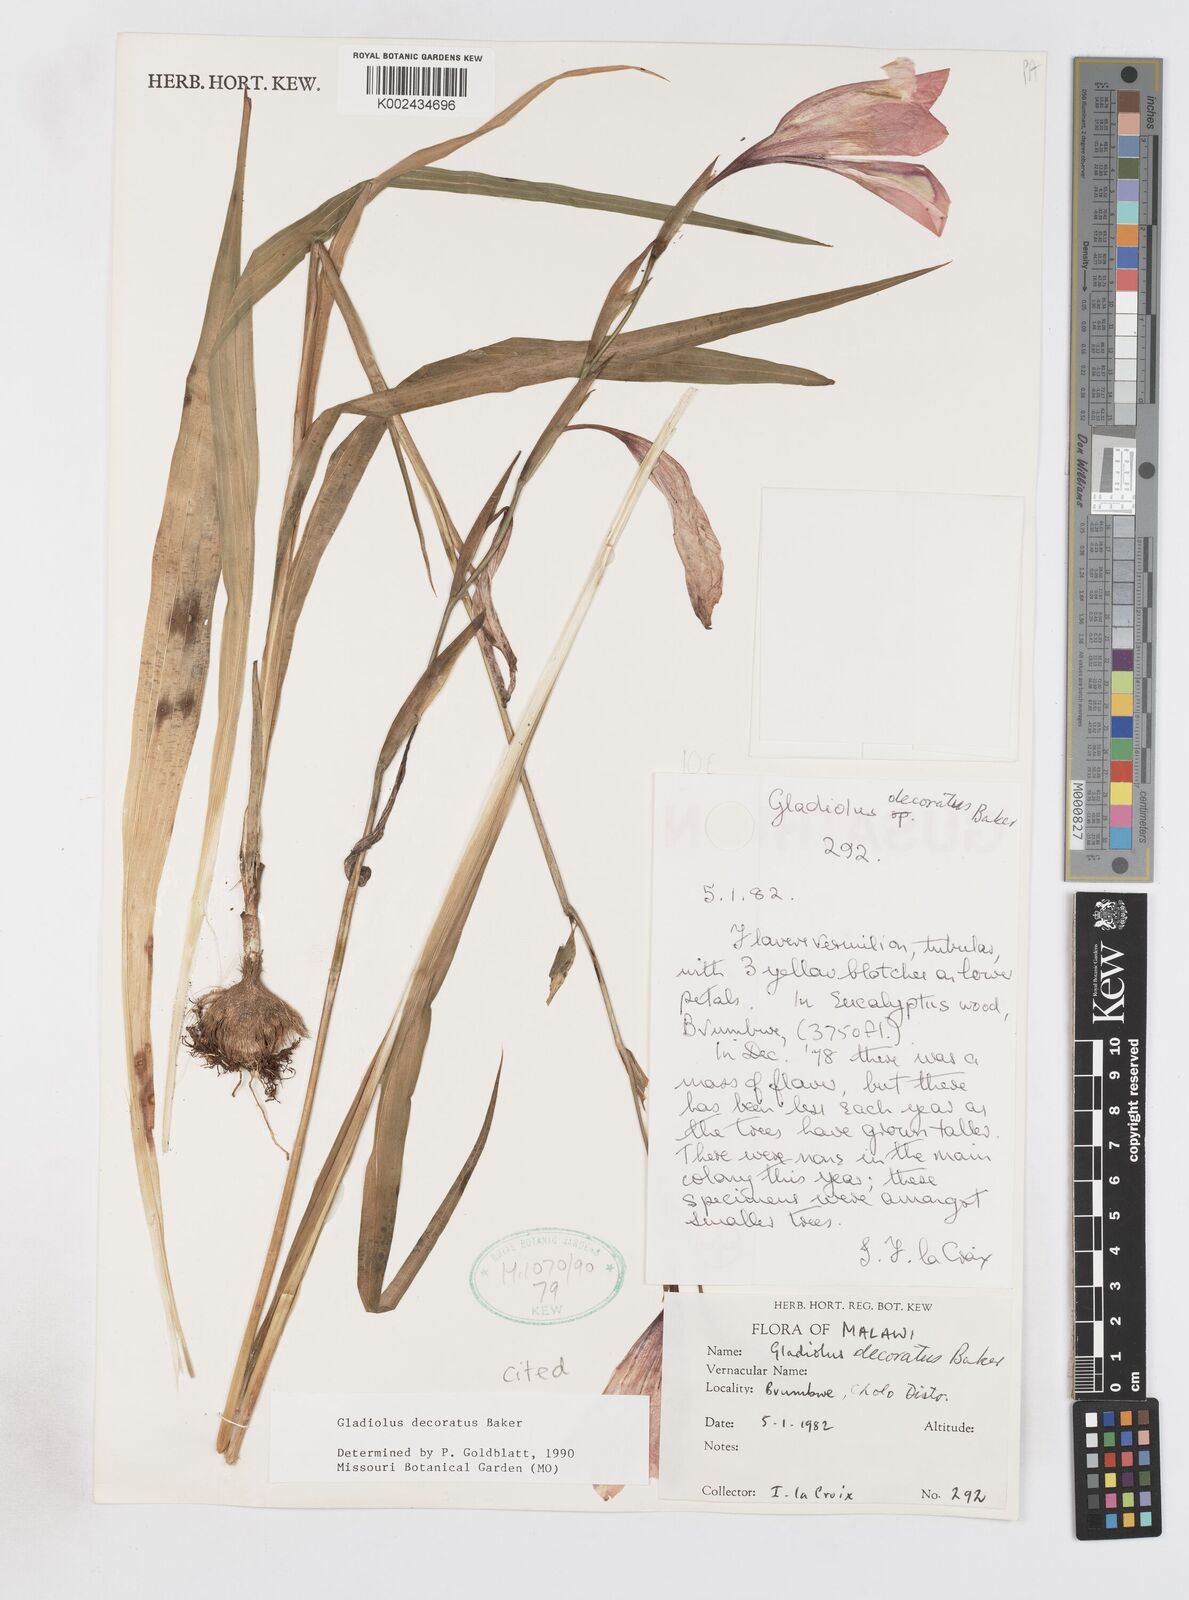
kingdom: Plantae
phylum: Tracheophyta
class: Liliopsida
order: Asparagales
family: Iridaceae
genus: Gladiolus
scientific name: Gladiolus decoratus
